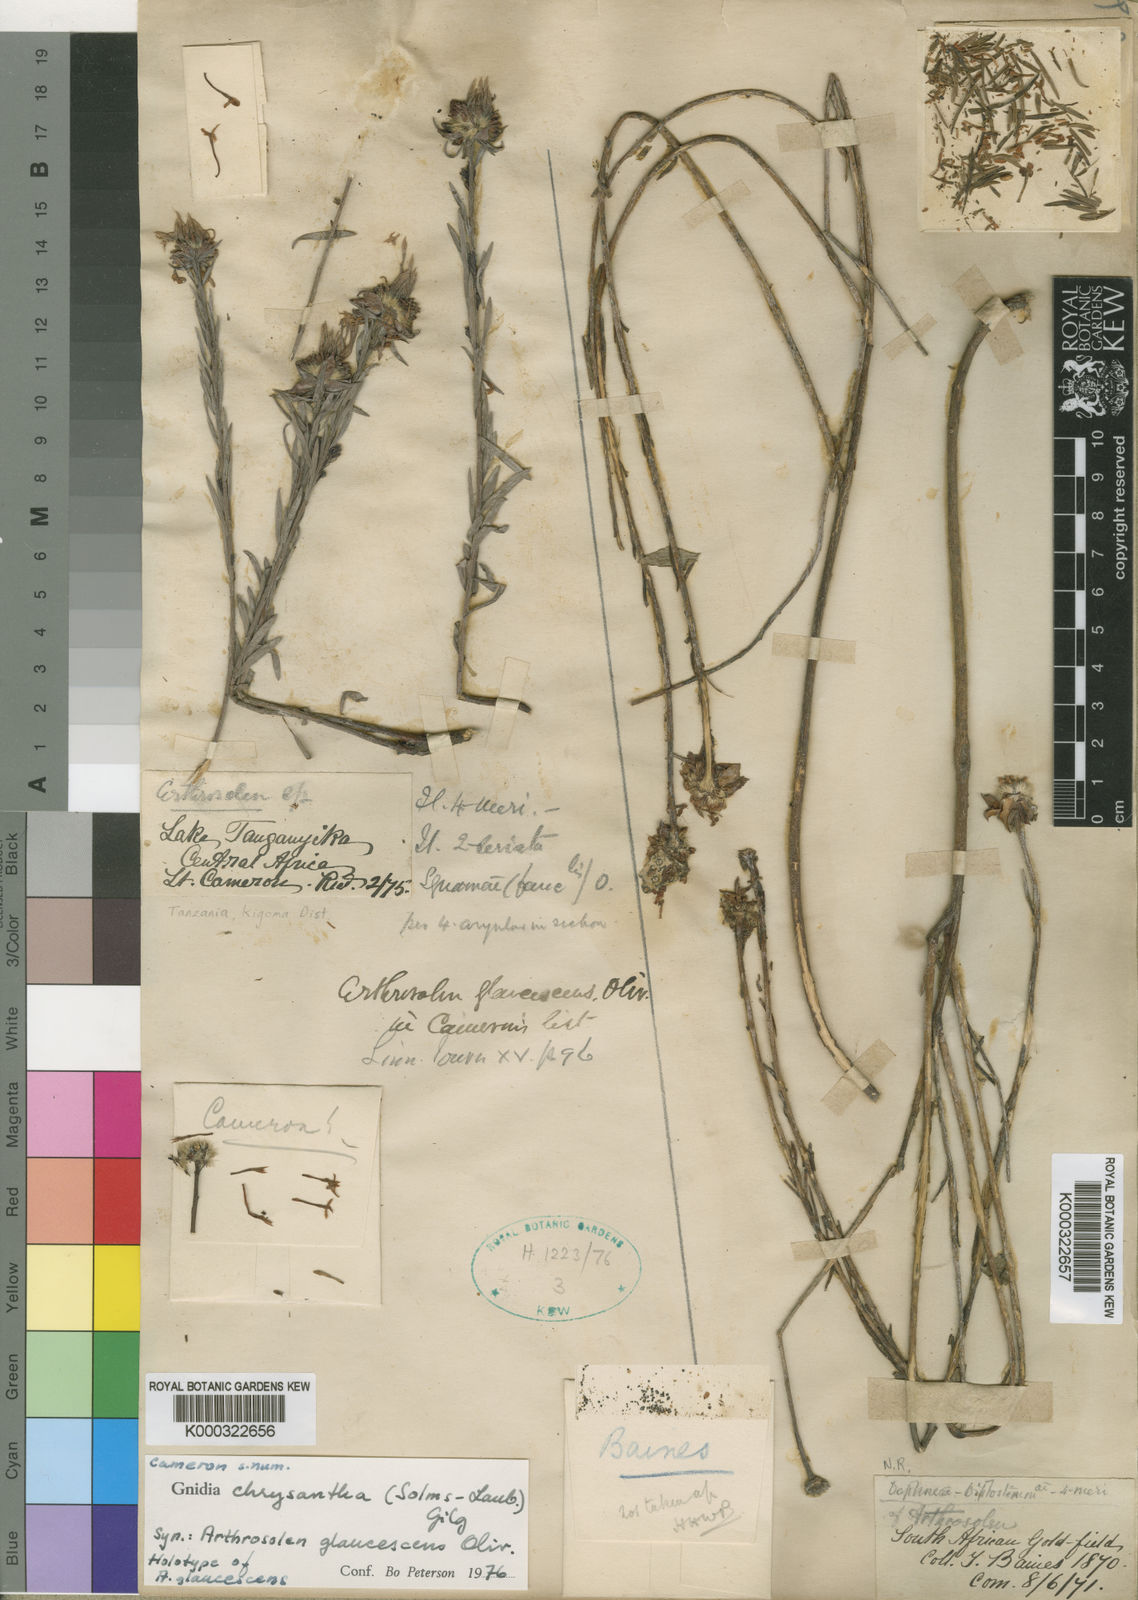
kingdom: Plantae
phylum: Tracheophyta
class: Magnoliopsida
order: Malvales
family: Thymelaeaceae
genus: Gnidia
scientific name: Gnidia chrysantha
